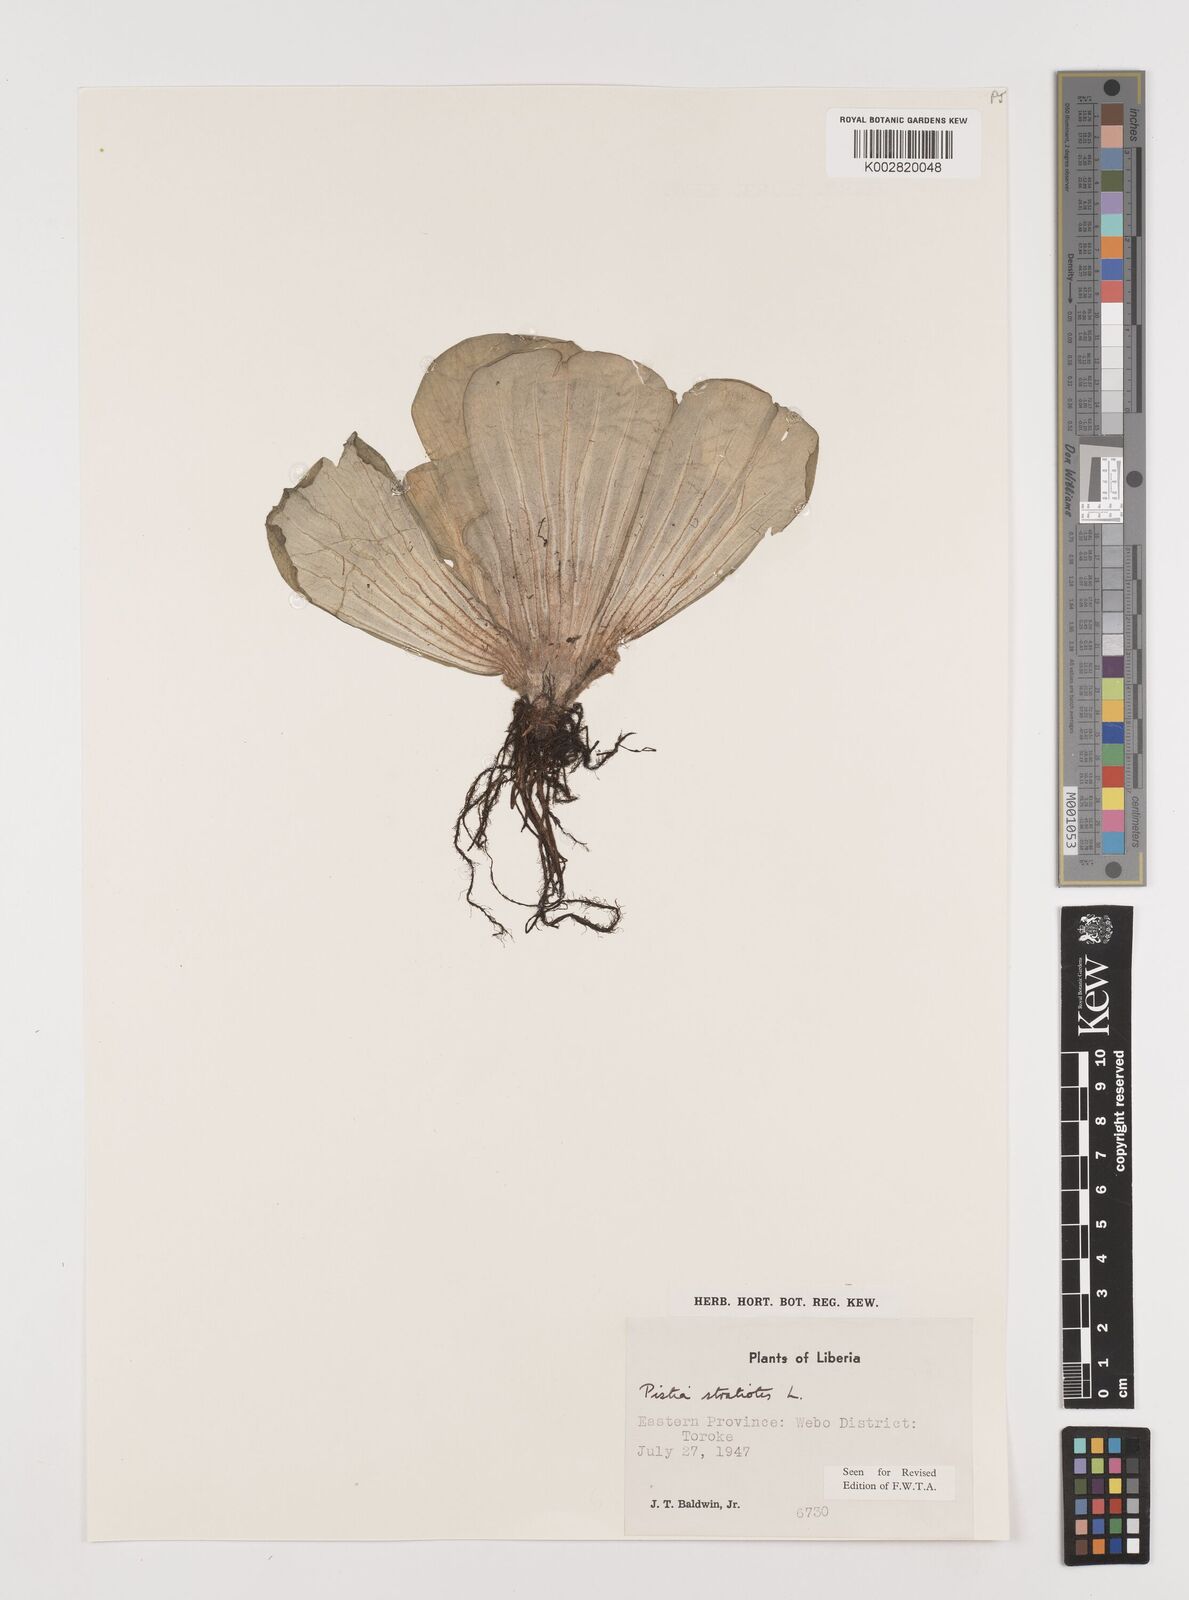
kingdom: Plantae
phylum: Tracheophyta
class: Liliopsida
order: Alismatales
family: Araceae
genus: Pistia
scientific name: Pistia stratiotes
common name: Water lettuce
